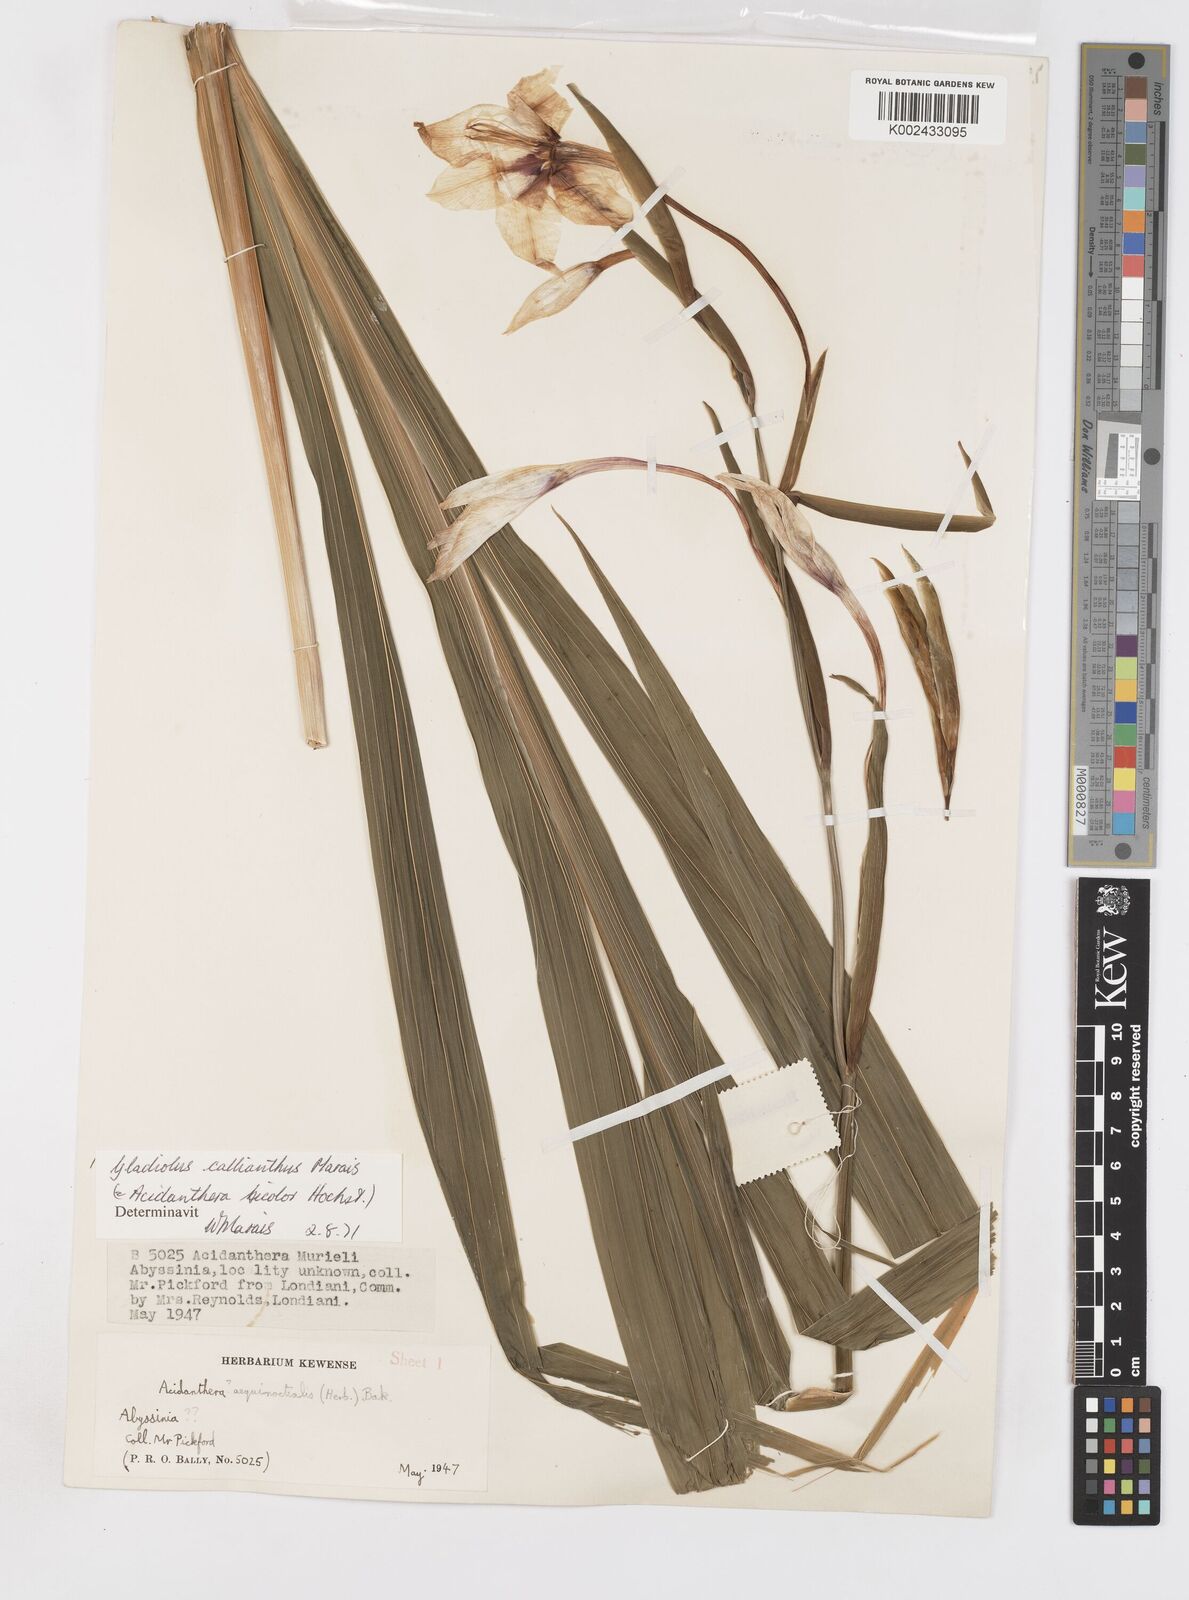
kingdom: Plantae
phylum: Tracheophyta
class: Liliopsida
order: Asparagales
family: Iridaceae
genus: Gladiolus
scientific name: Gladiolus murielae
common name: Acidanthera
